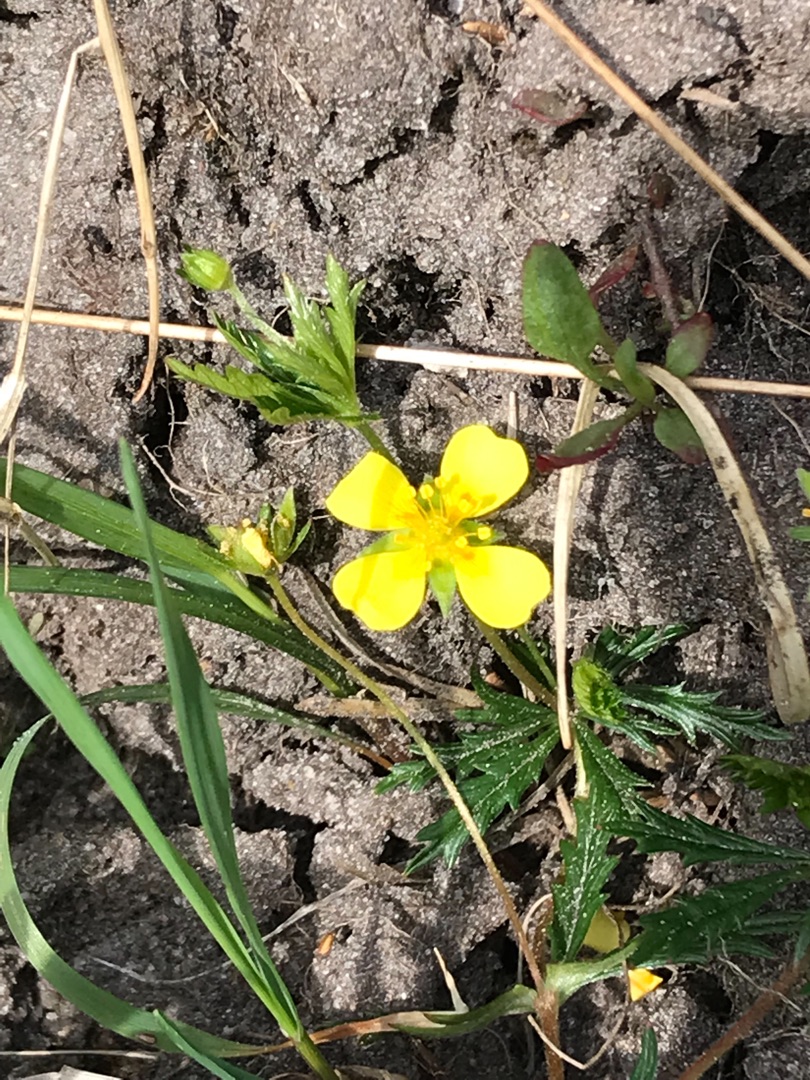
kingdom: Plantae
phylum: Tracheophyta
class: Magnoliopsida
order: Rosales
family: Rosaceae
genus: Potentilla
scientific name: Potentilla erecta
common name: Tormentil
